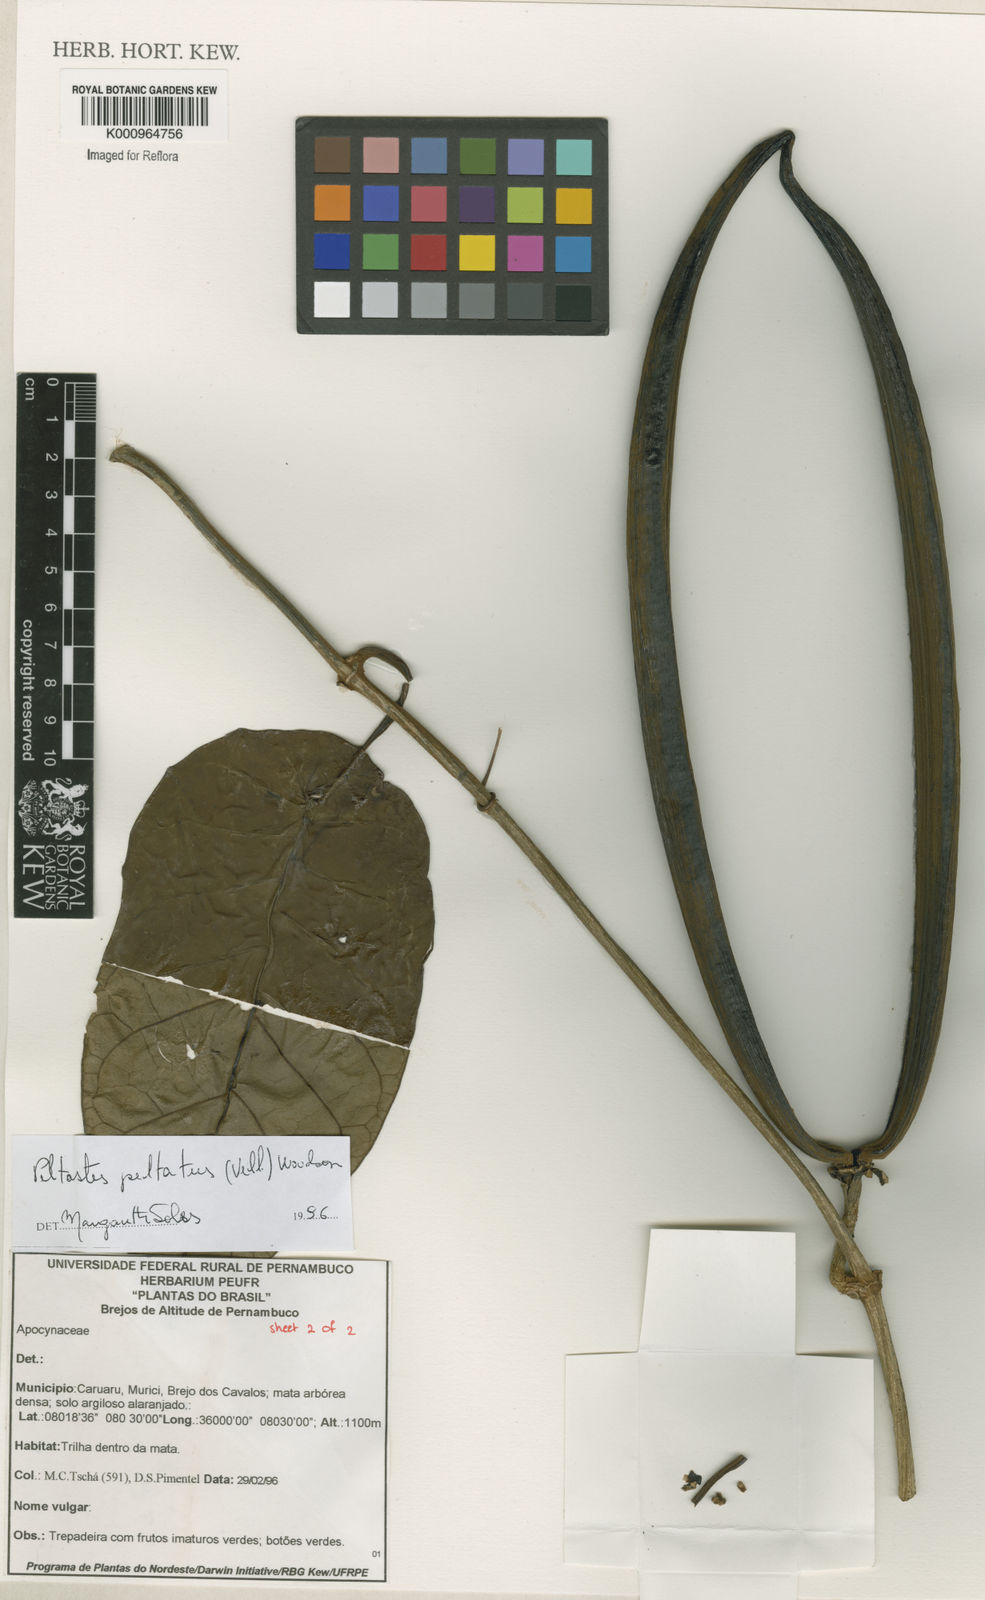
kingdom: Plantae
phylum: Tracheophyta
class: Magnoliopsida
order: Gentianales
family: Apocynaceae
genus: Macropharynx
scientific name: Macropharynx peltata
